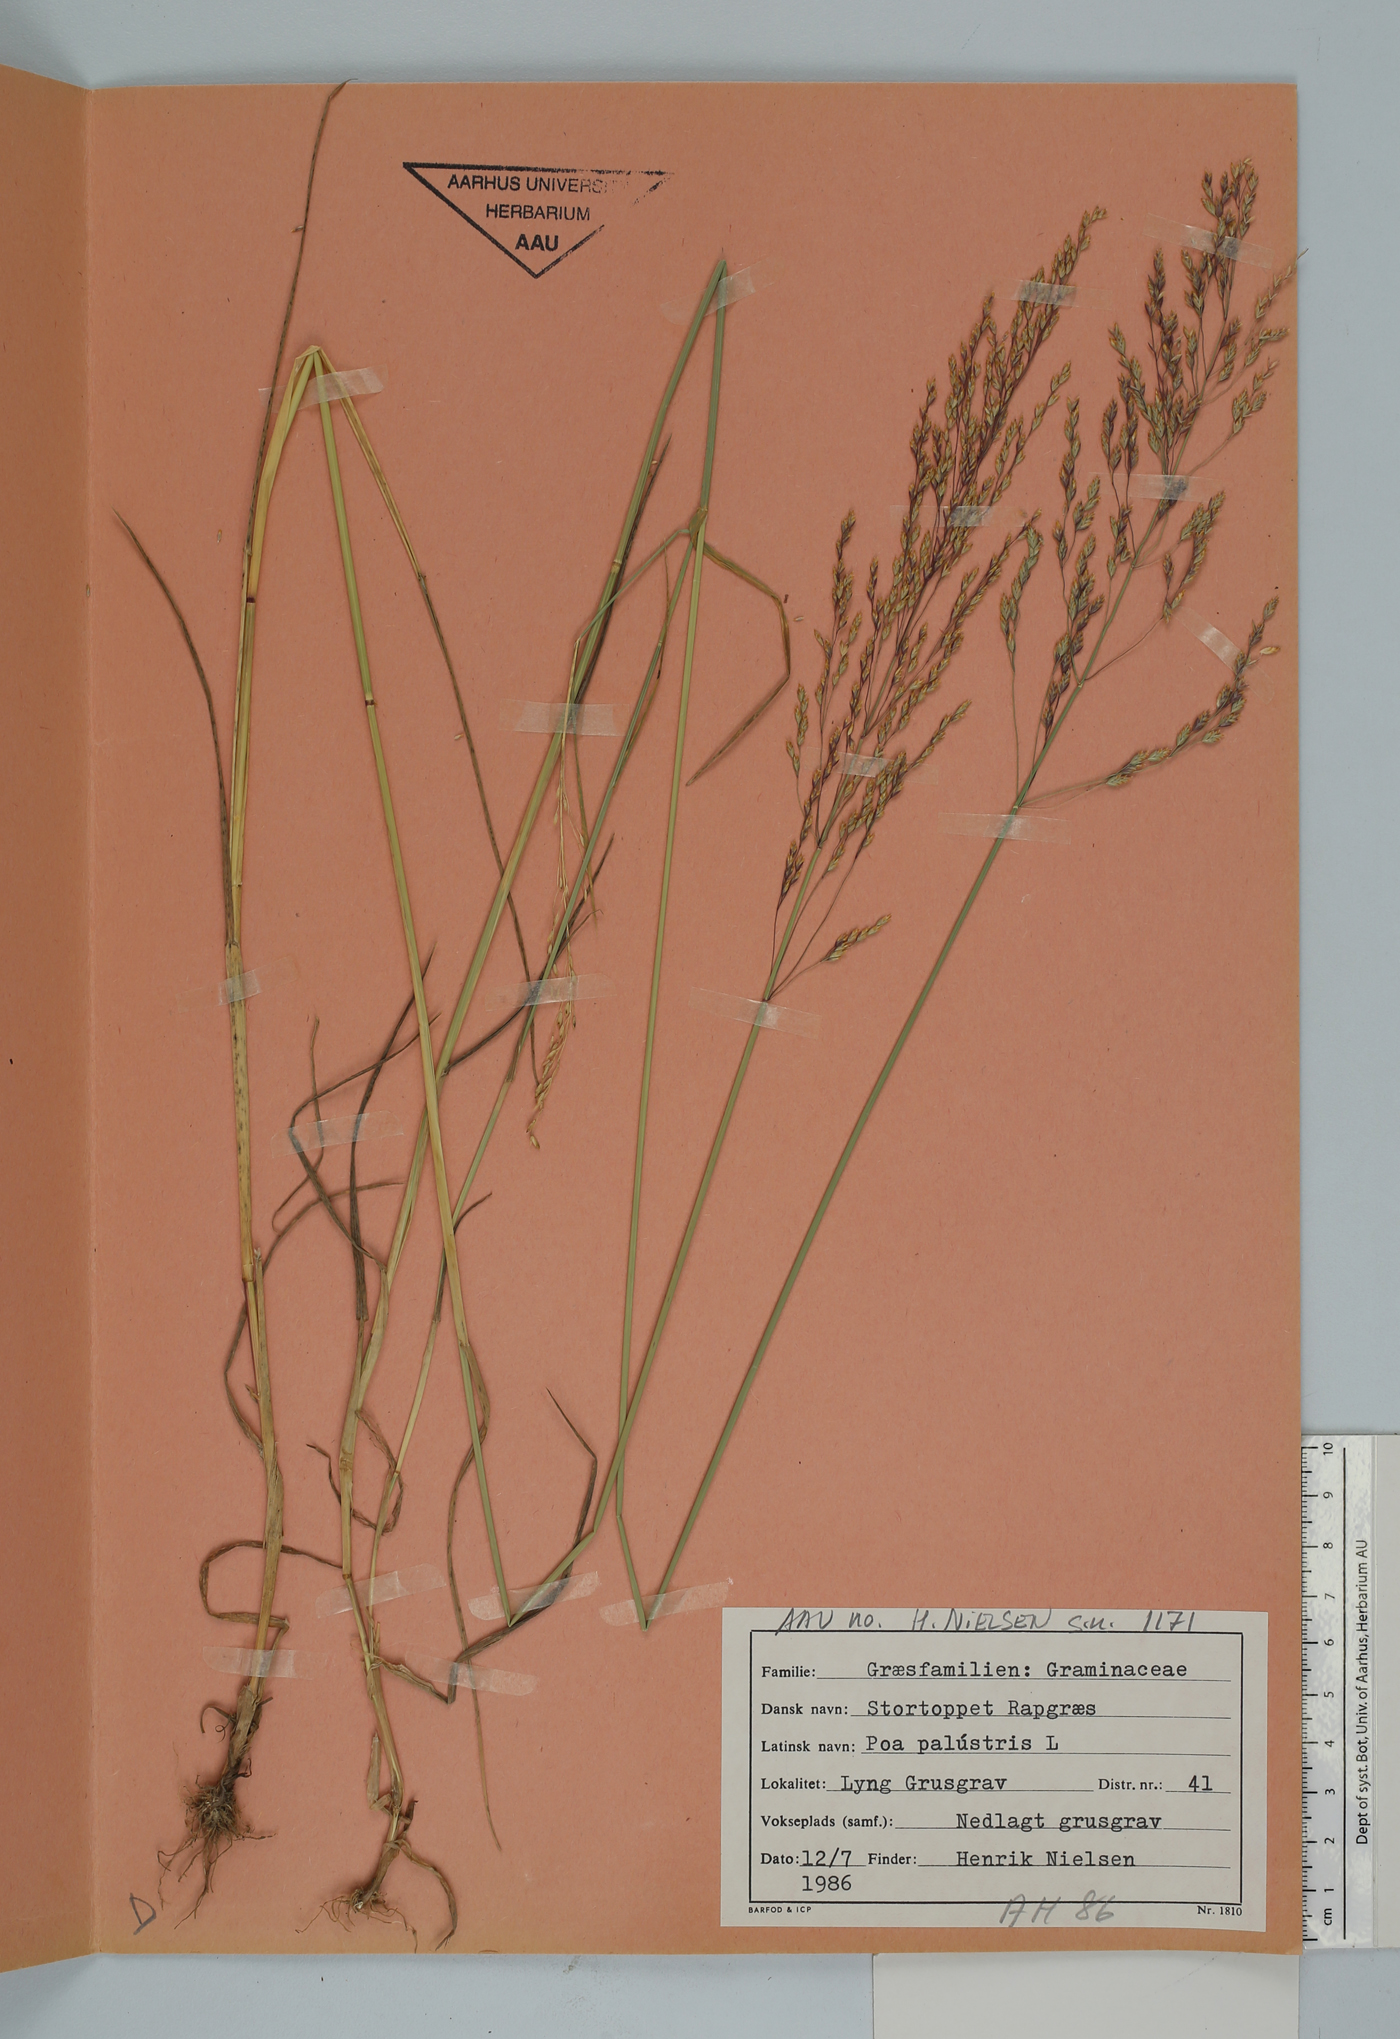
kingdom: Plantae
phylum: Tracheophyta
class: Liliopsida
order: Poales
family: Poaceae
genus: Poa
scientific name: Poa palustris
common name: Swamp meadow-grass
